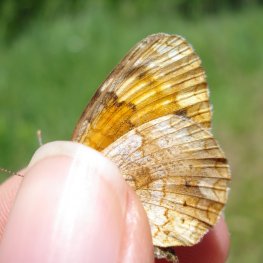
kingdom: Animalia
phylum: Arthropoda
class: Insecta
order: Lepidoptera
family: Nymphalidae
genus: Phyciodes
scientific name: Phyciodes tharos
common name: Northern Crescent
